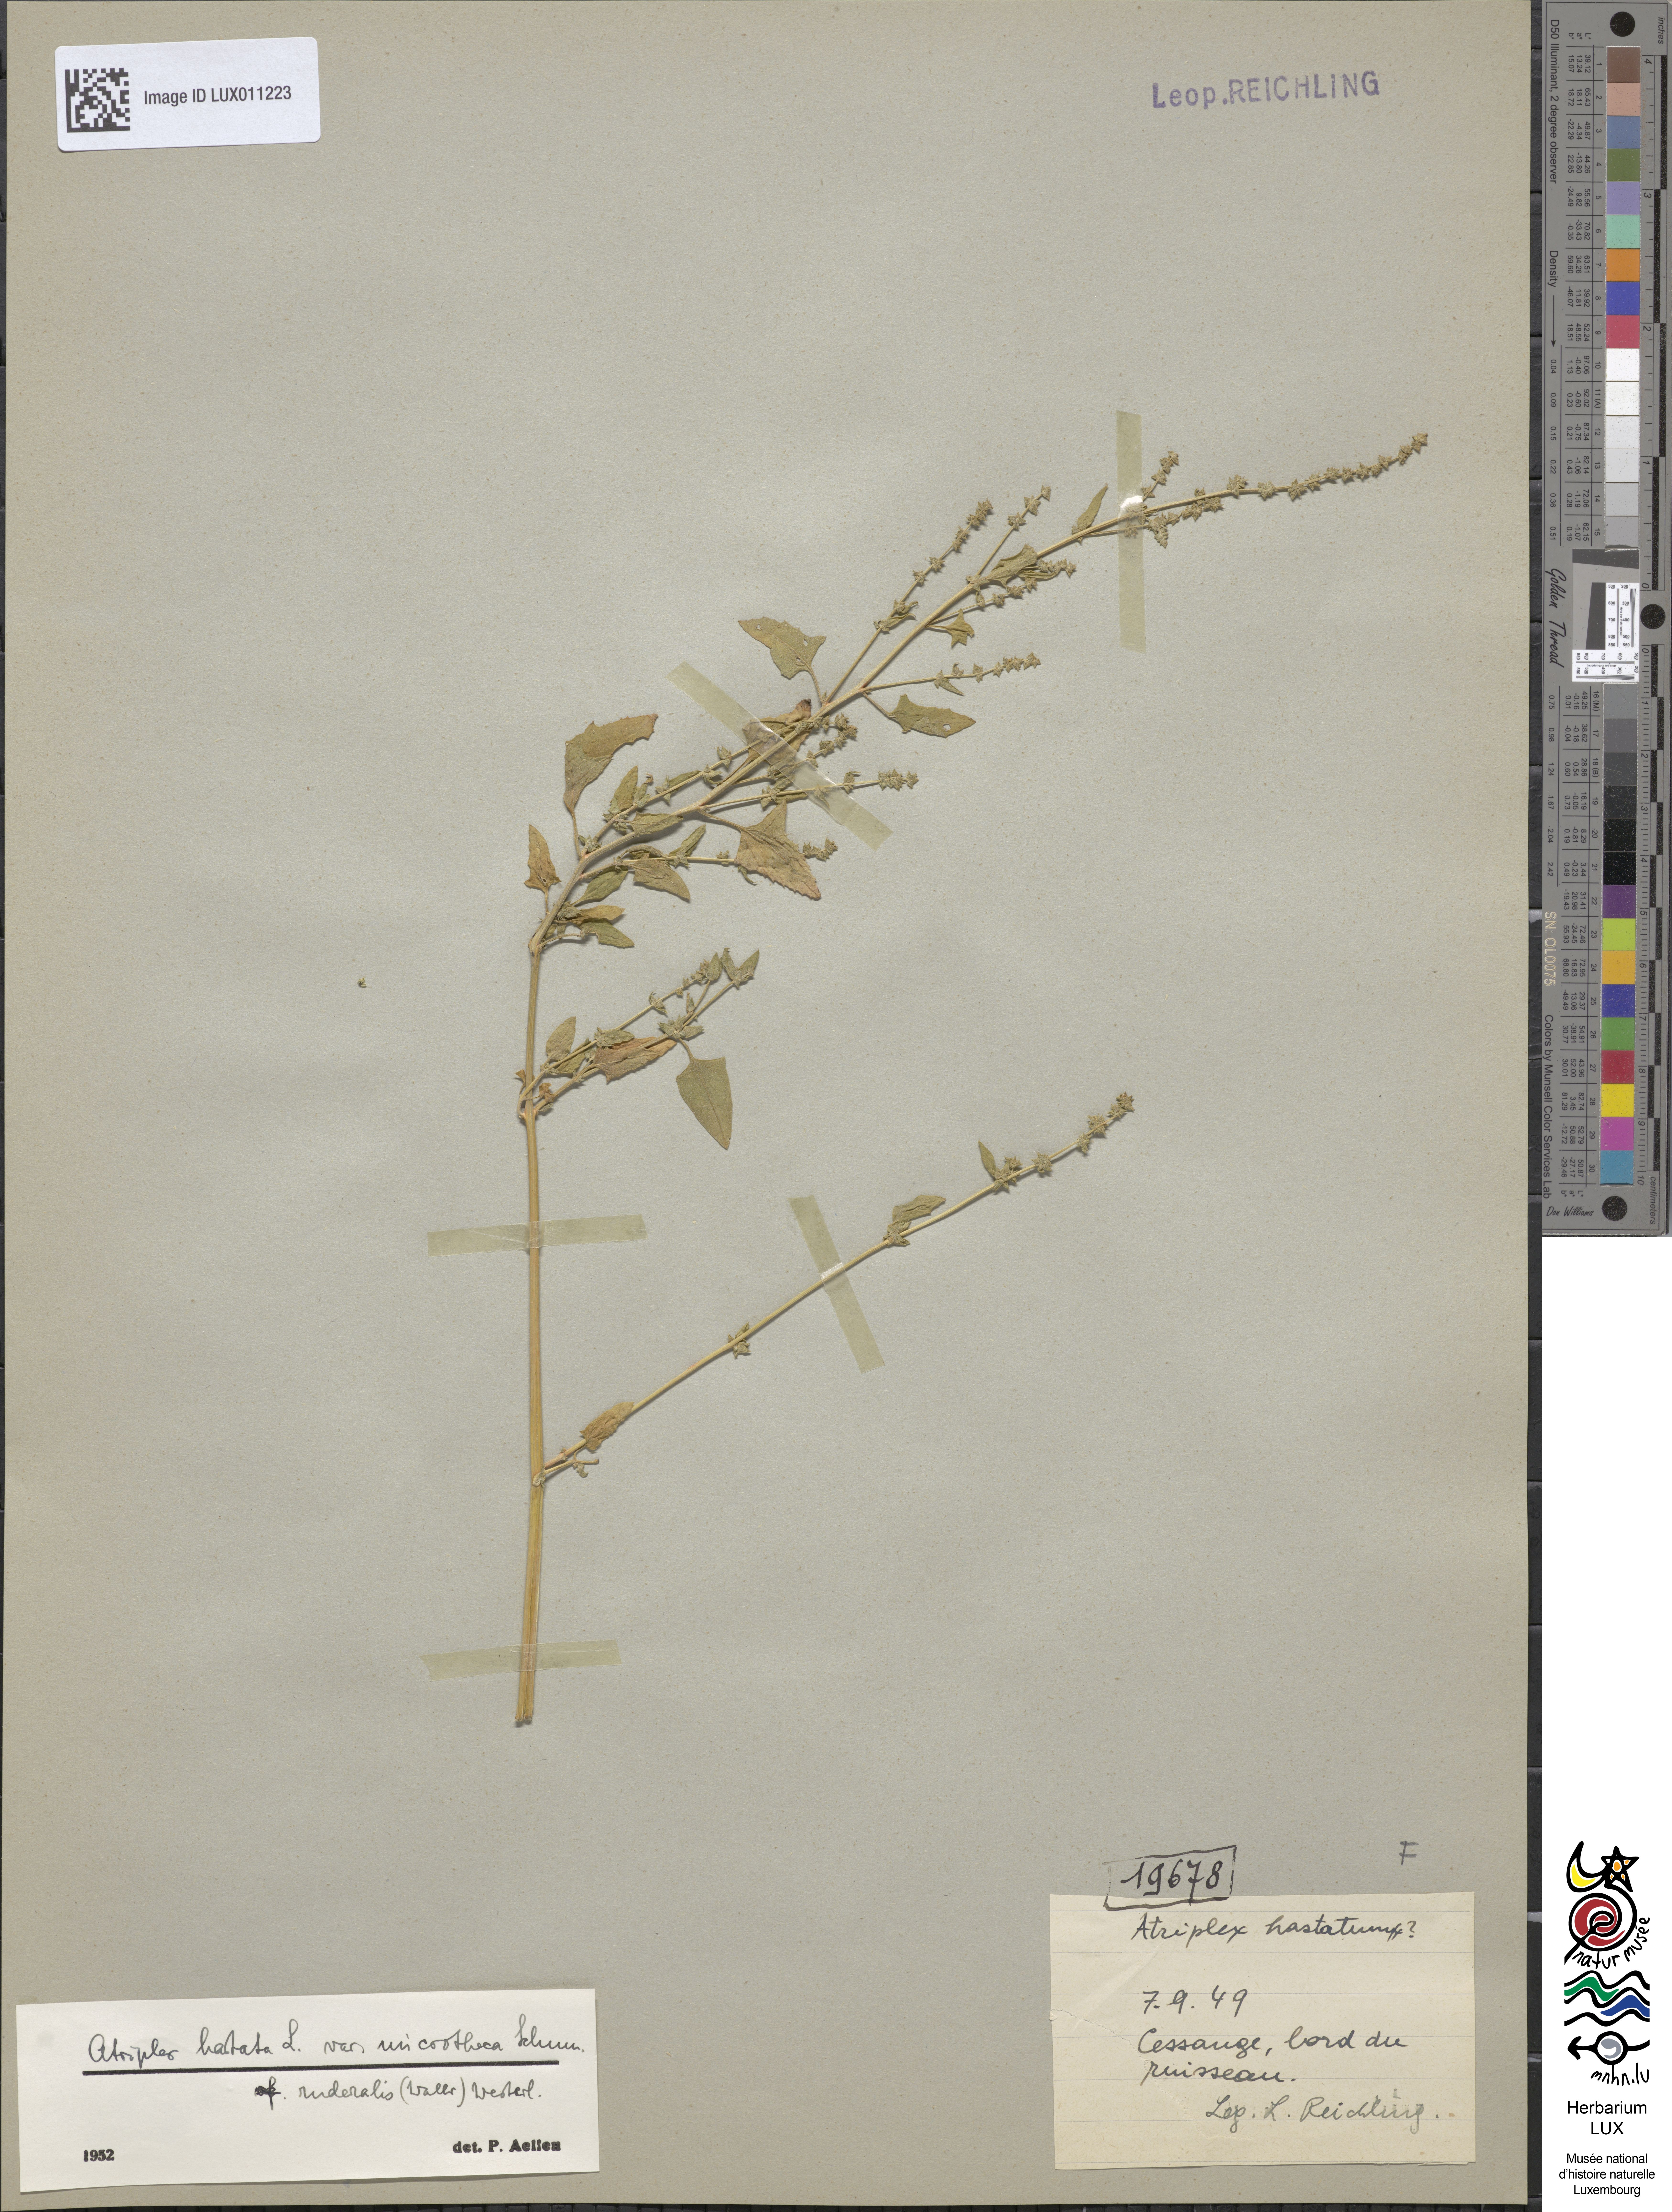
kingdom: Plantae
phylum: Tracheophyta
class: Magnoliopsida
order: Caryophyllales
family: Amaranthaceae
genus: Atriplex
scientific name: Atriplex prostrata
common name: Spear-leaved orache
